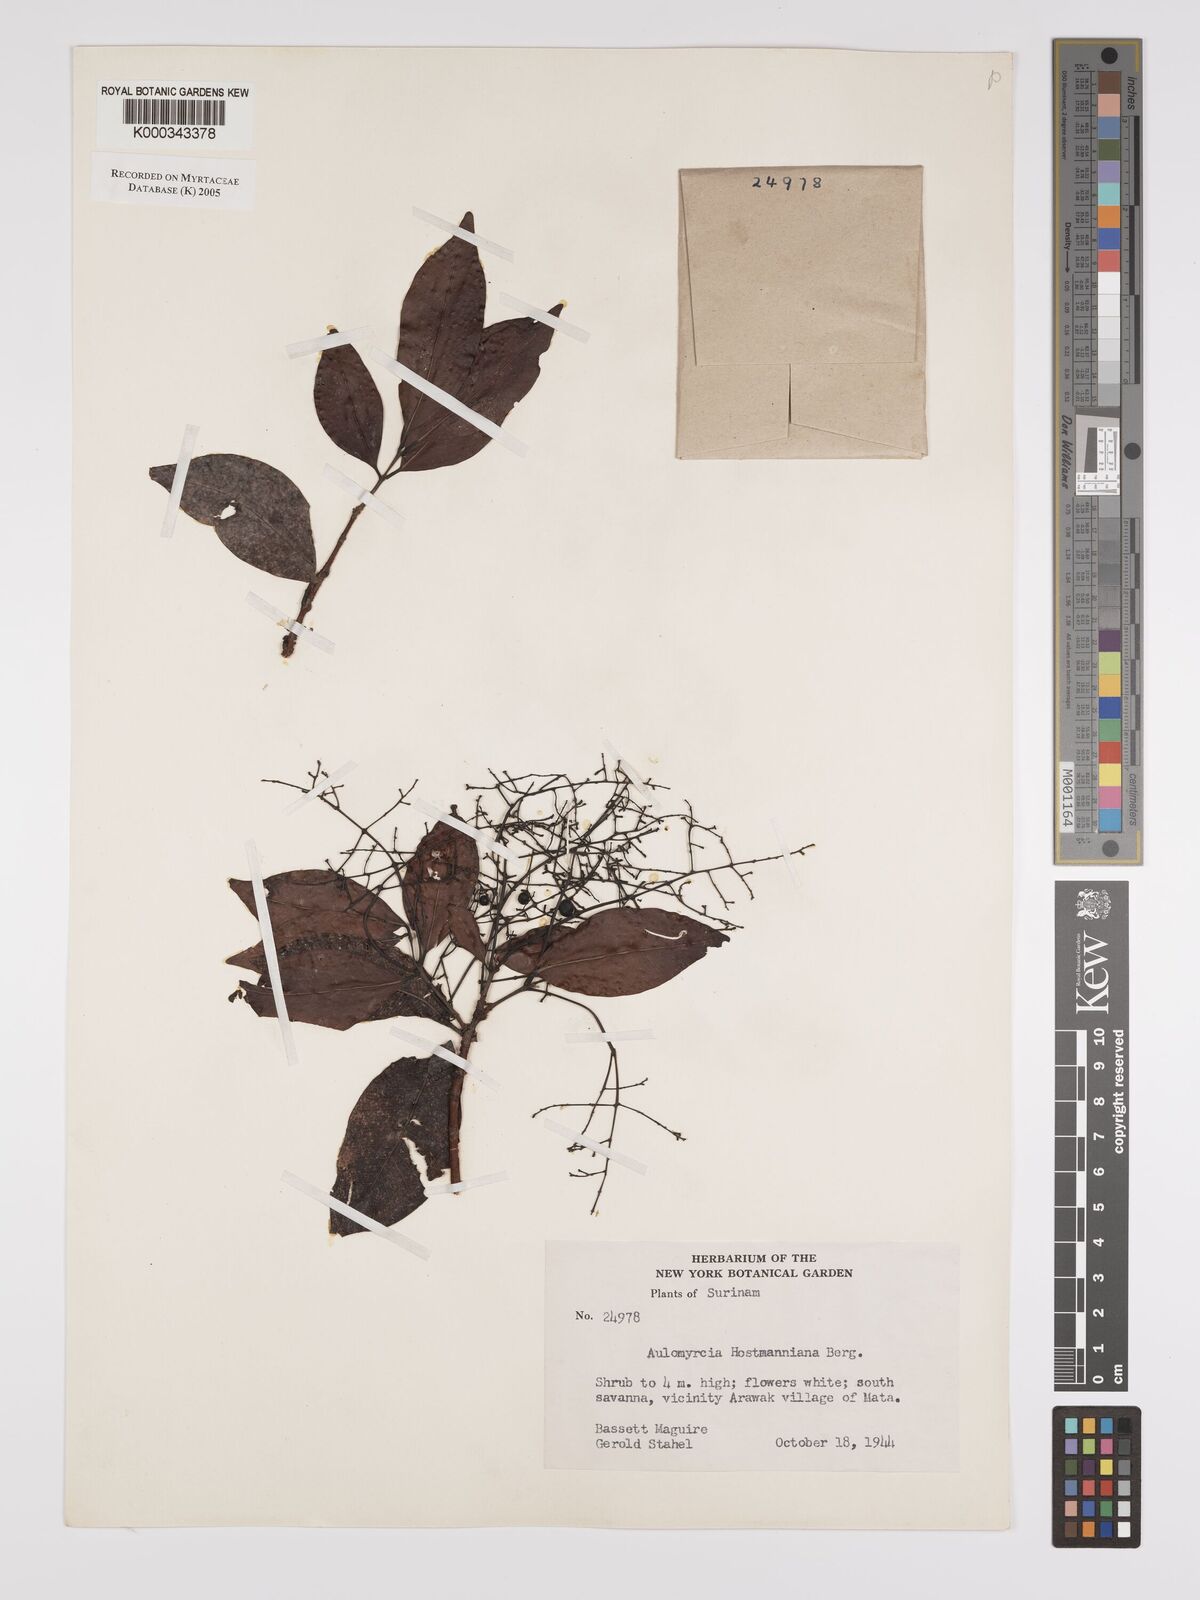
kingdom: Plantae
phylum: Tracheophyta
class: Magnoliopsida
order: Myrtales
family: Myrtaceae
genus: Myrcia
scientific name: Myrcia amazonica
